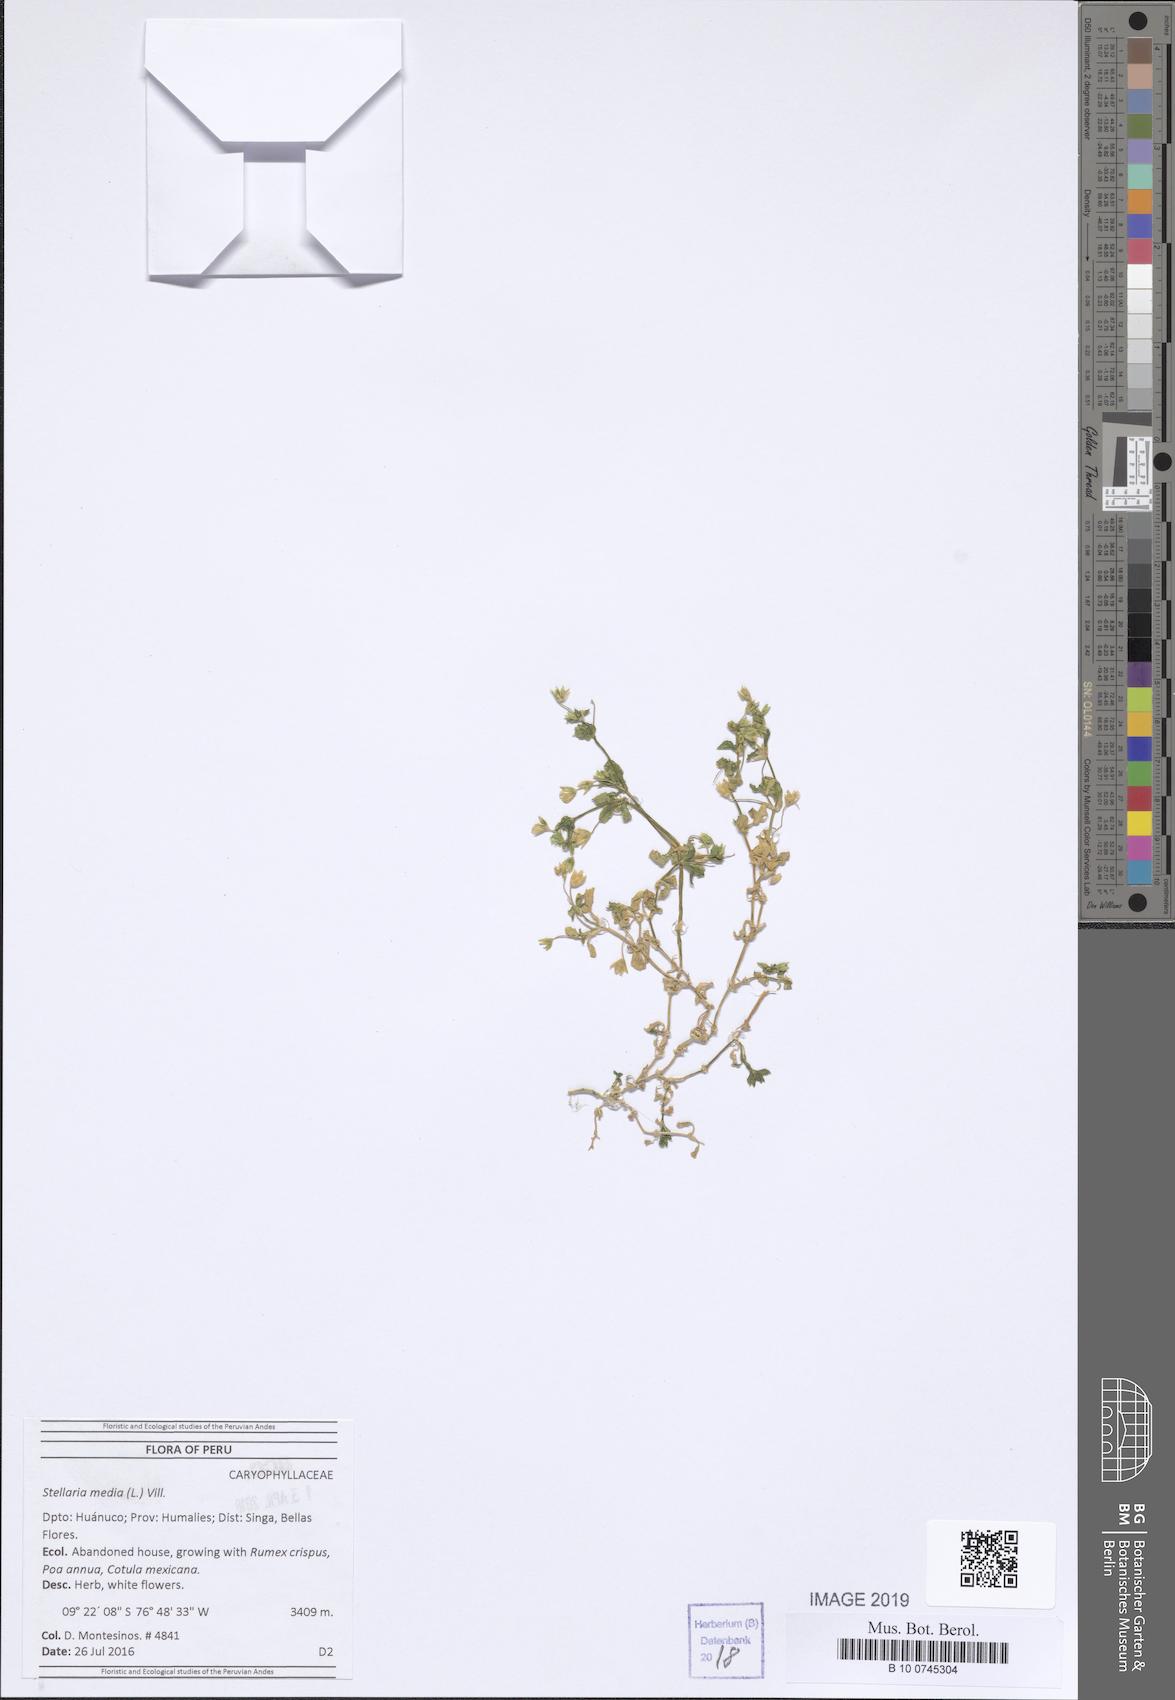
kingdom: Plantae
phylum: Tracheophyta
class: Magnoliopsida
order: Caryophyllales
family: Caryophyllaceae
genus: Stellaria
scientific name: Stellaria media
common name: Common chickweed
